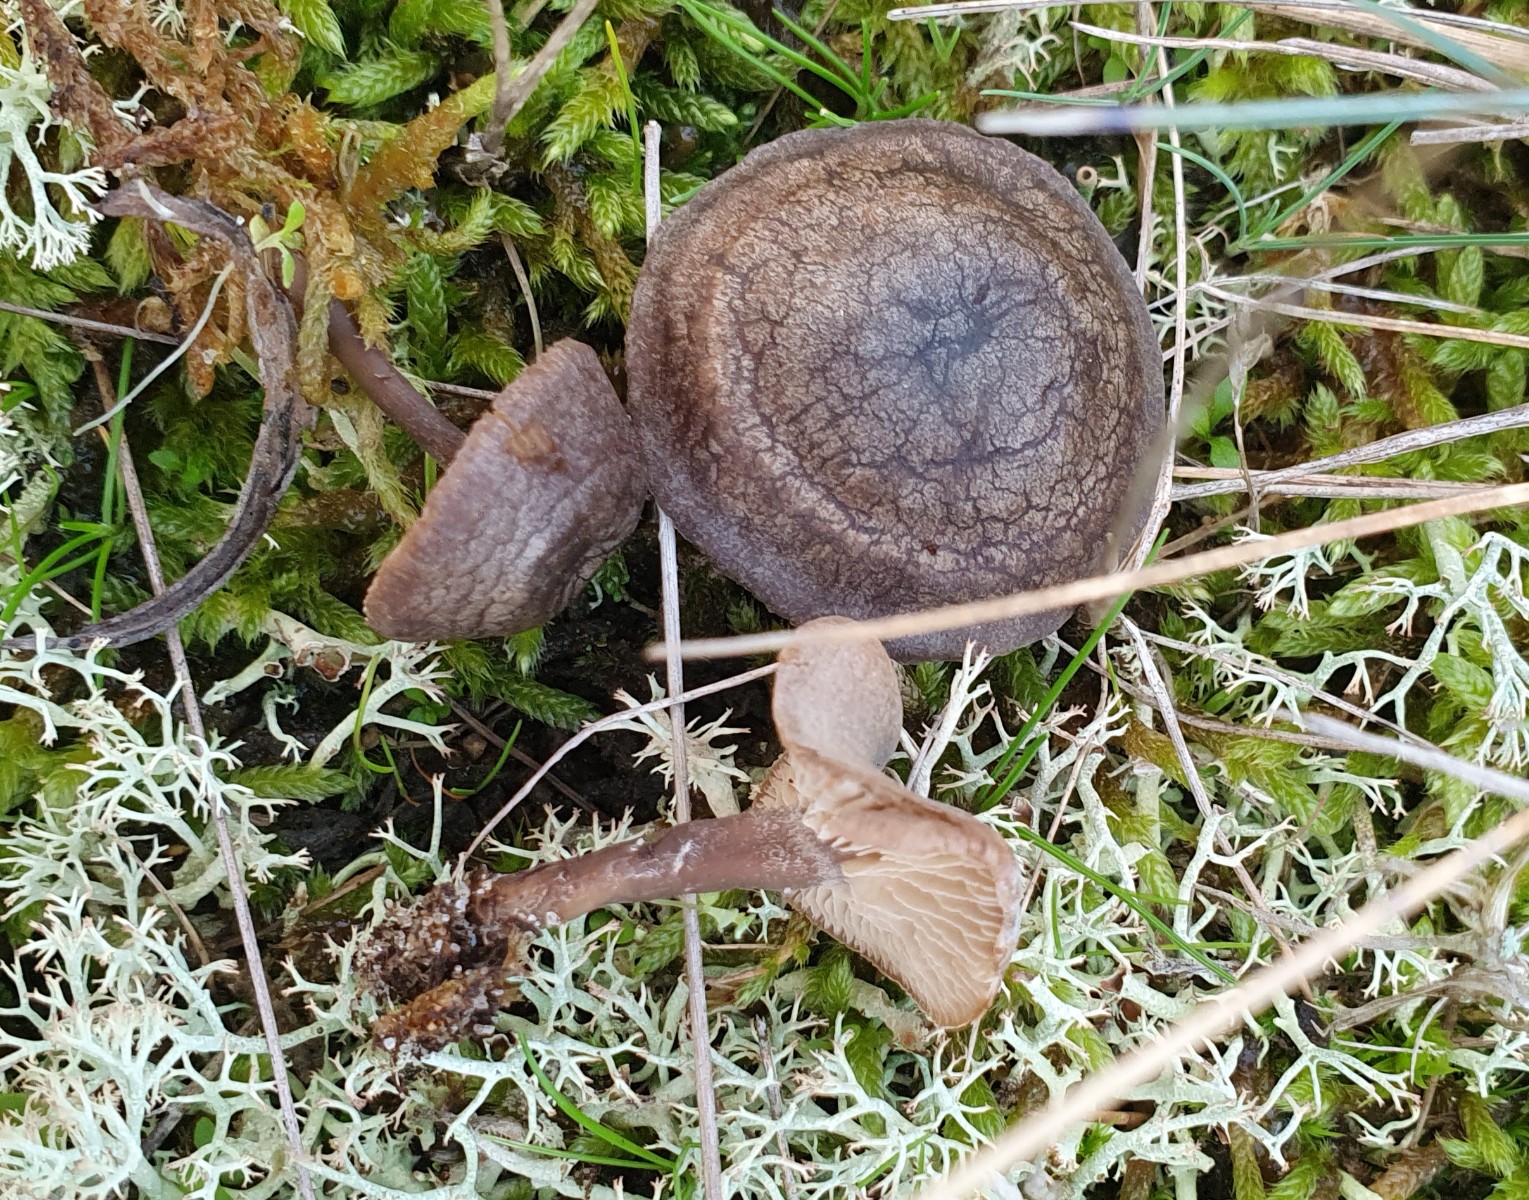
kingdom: Fungi
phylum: Basidiomycota
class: Agaricomycetes
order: Agaricales
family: Entolomataceae
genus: Clitopilus
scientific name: Clitopilus caelatus
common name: gråbrun troldhat
